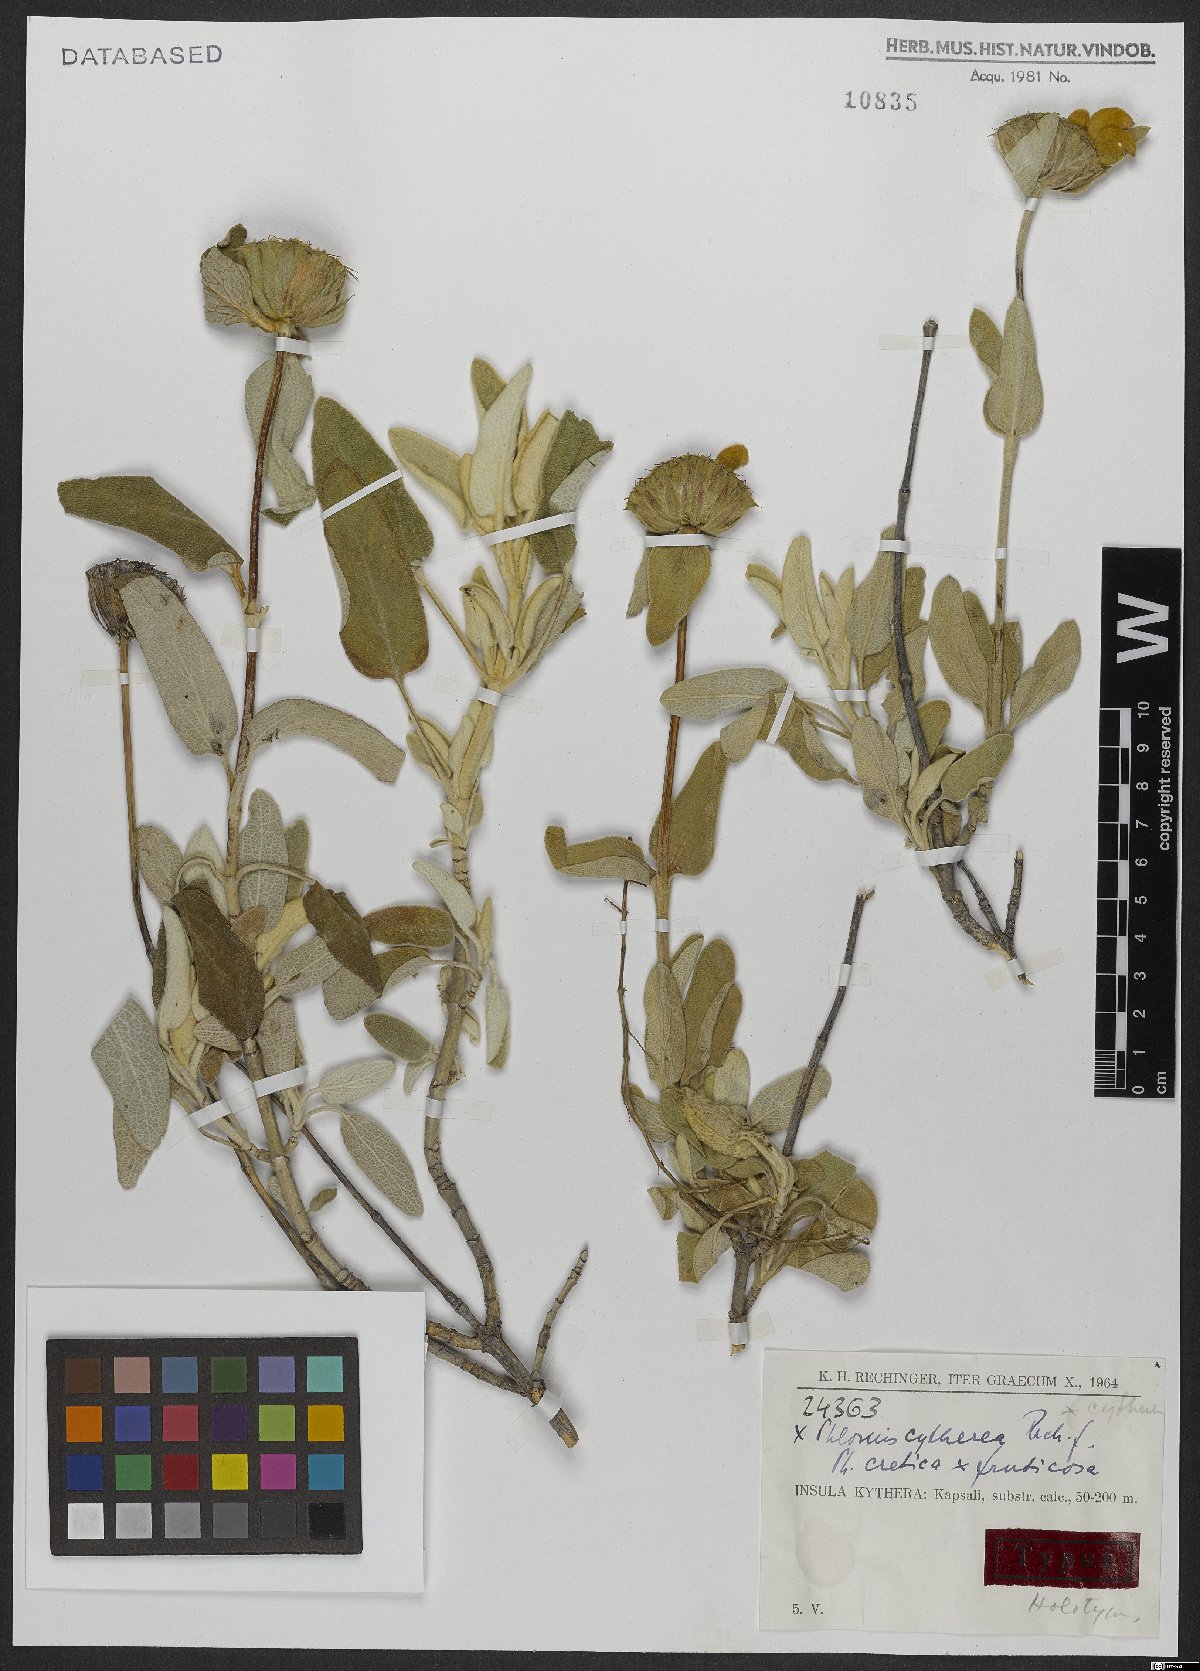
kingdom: Plantae
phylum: Tracheophyta
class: Magnoliopsida
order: Lamiales
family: Lamiaceae
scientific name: Lamiaceae
